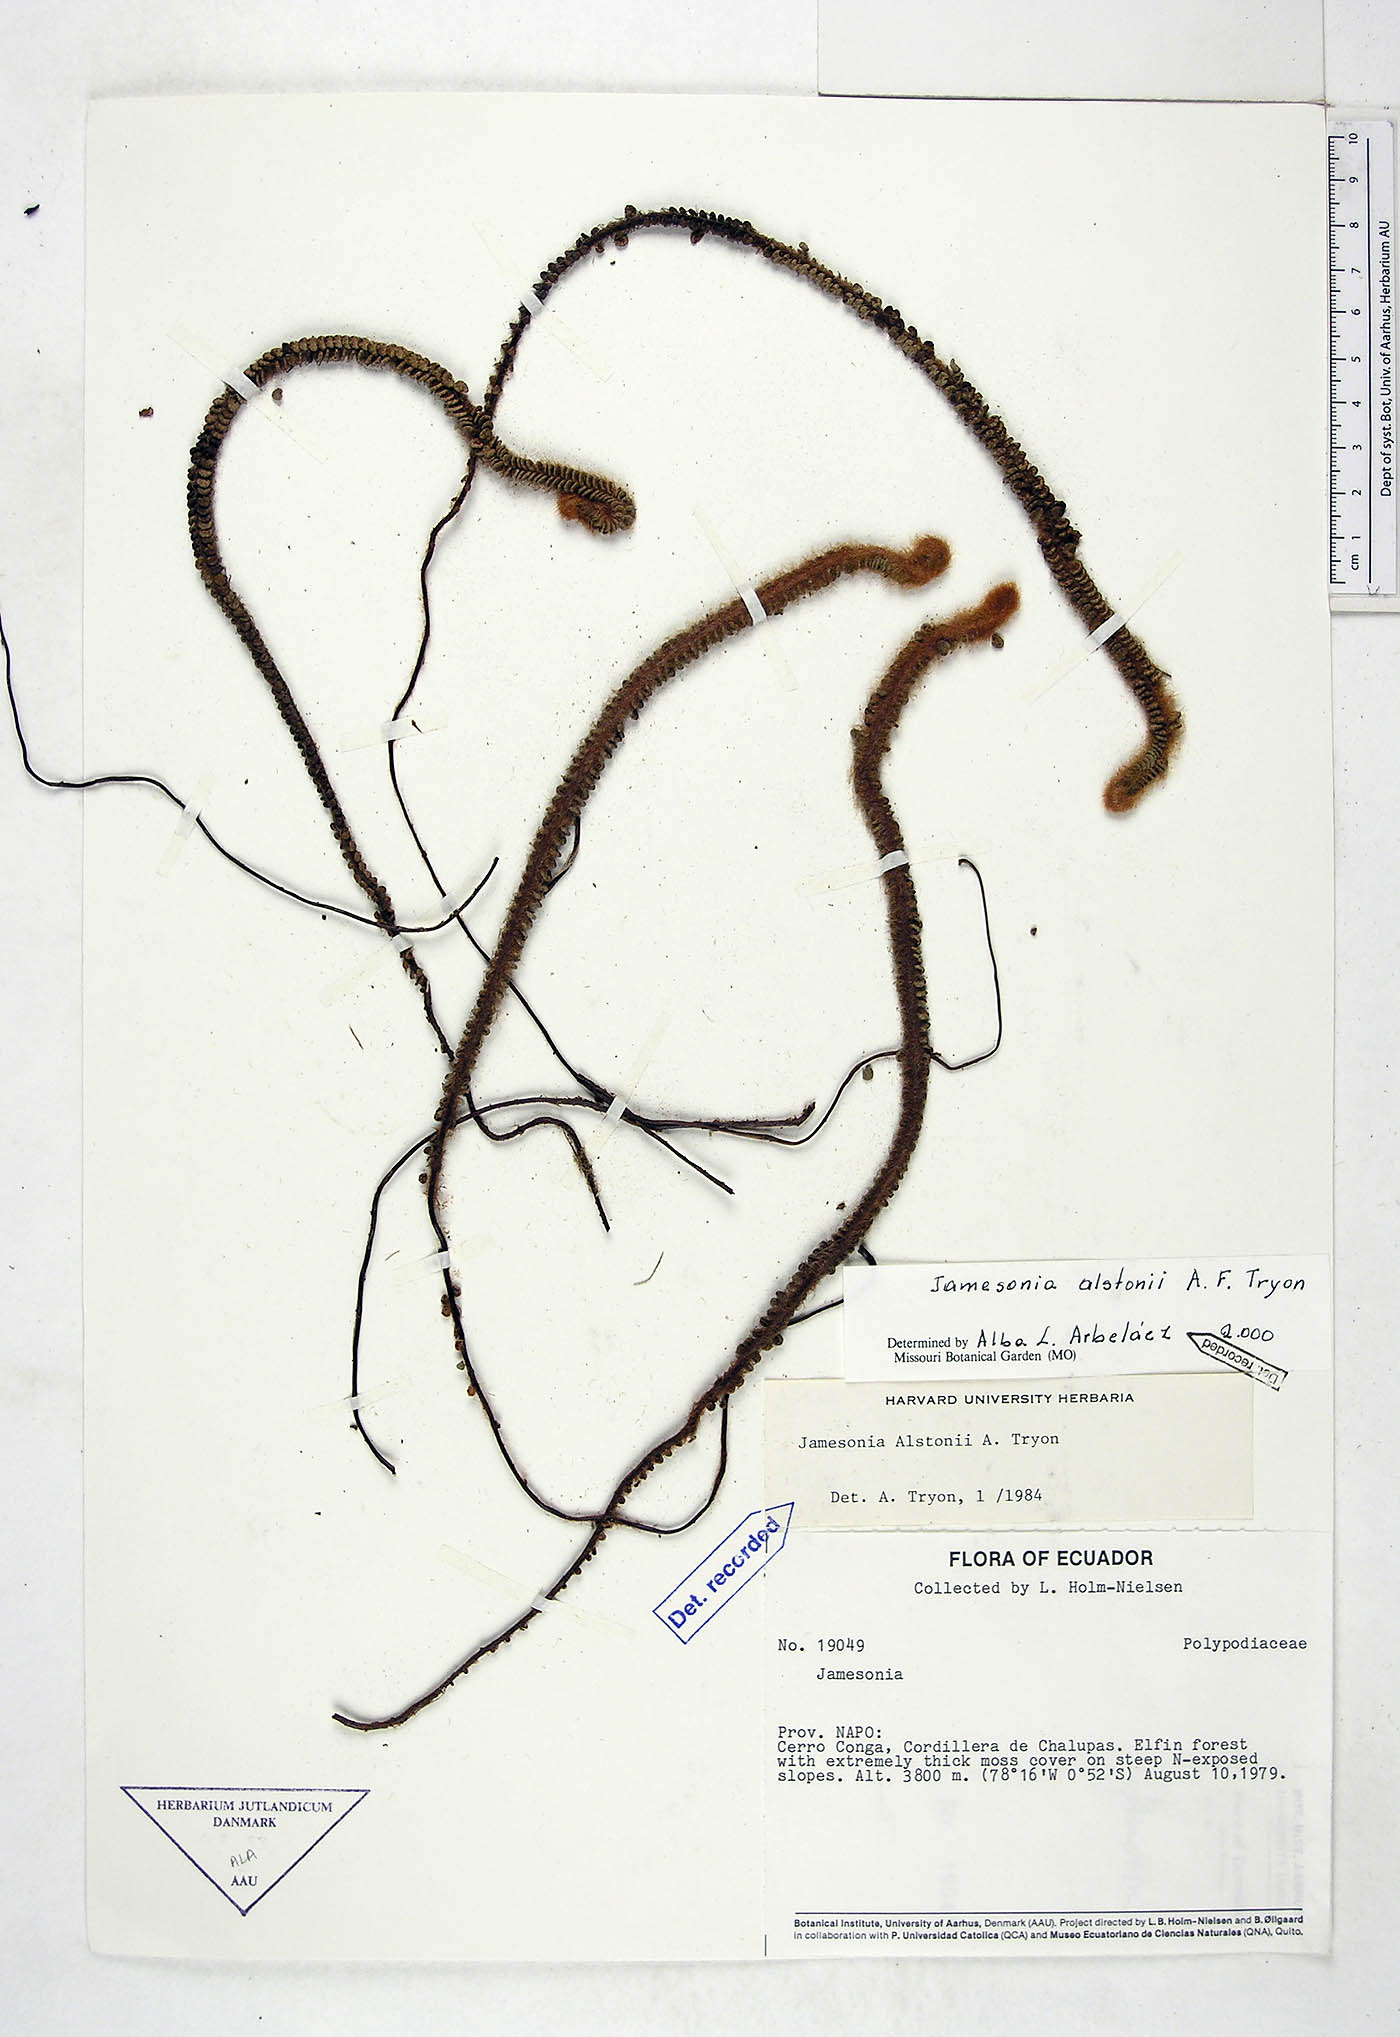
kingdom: Plantae
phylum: Tracheophyta
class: Polypodiopsida
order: Polypodiales
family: Pteridaceae
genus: Jamesonia
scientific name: Jamesonia alstonii
